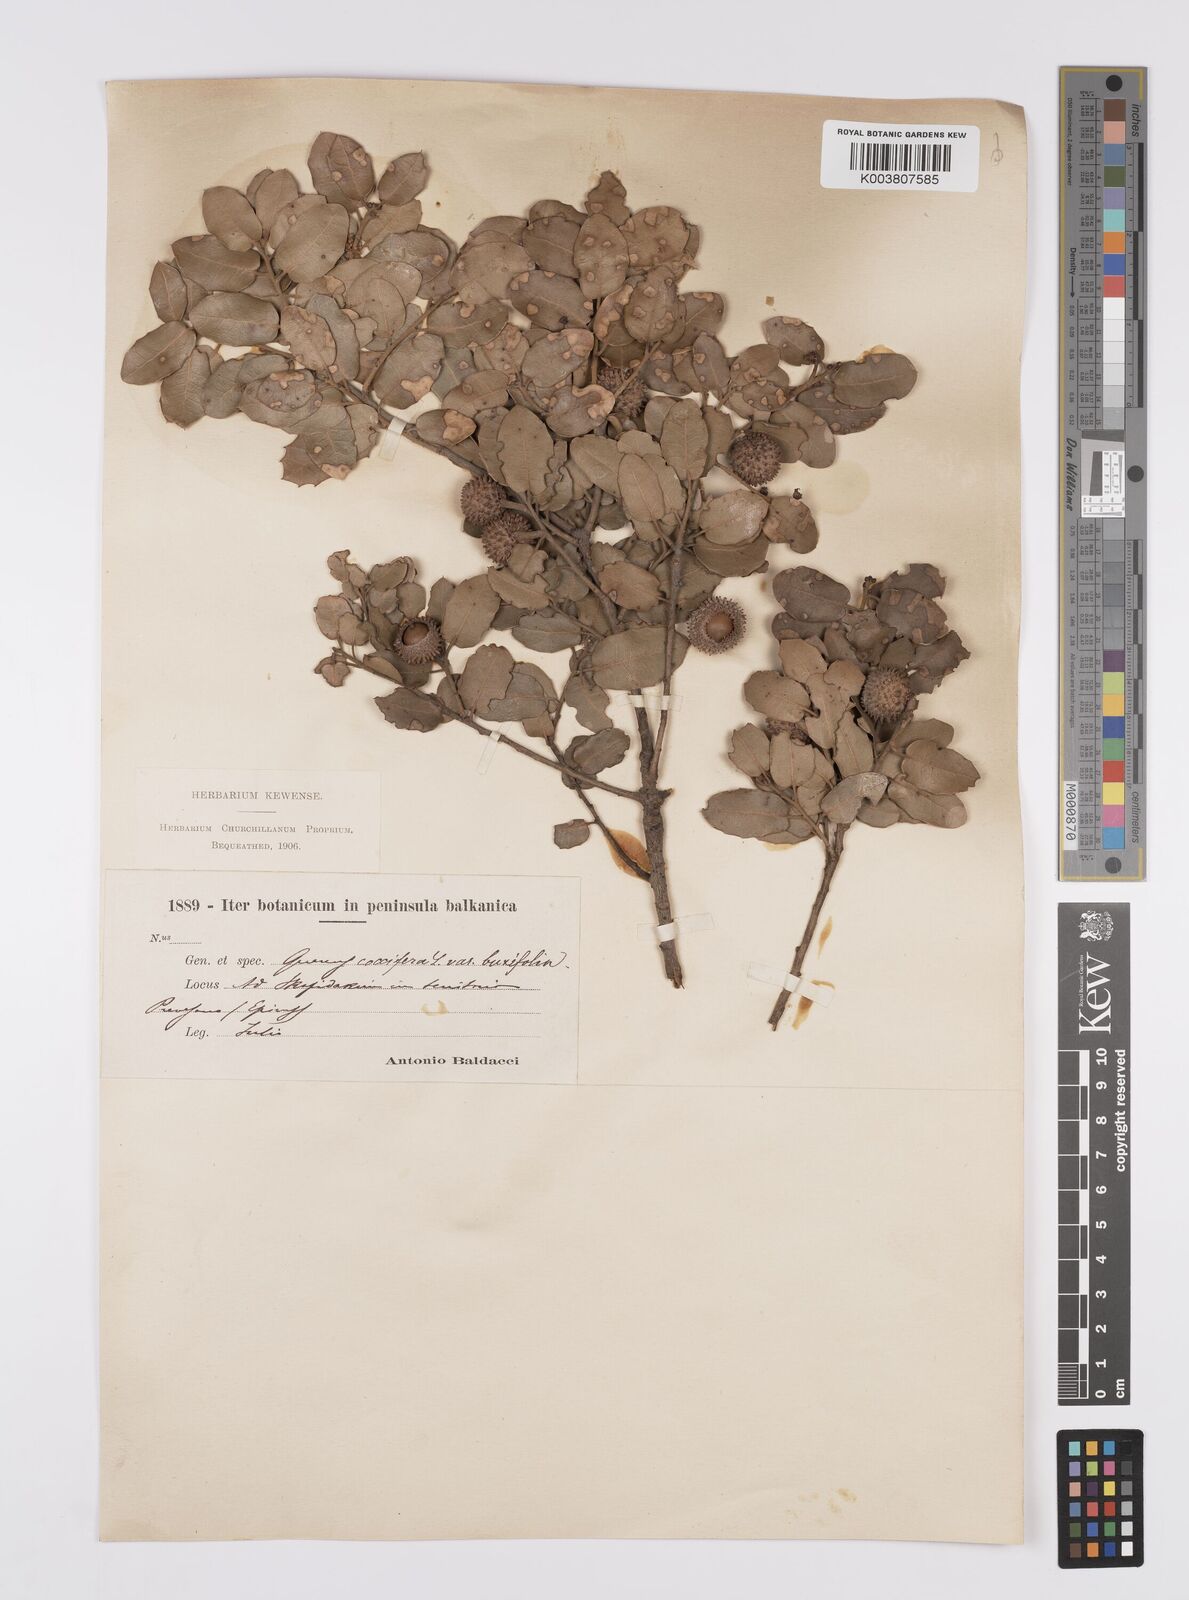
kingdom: Plantae
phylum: Tracheophyta
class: Magnoliopsida
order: Fagales
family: Fagaceae
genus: Quercus
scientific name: Quercus coccifera
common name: Kermes oak
